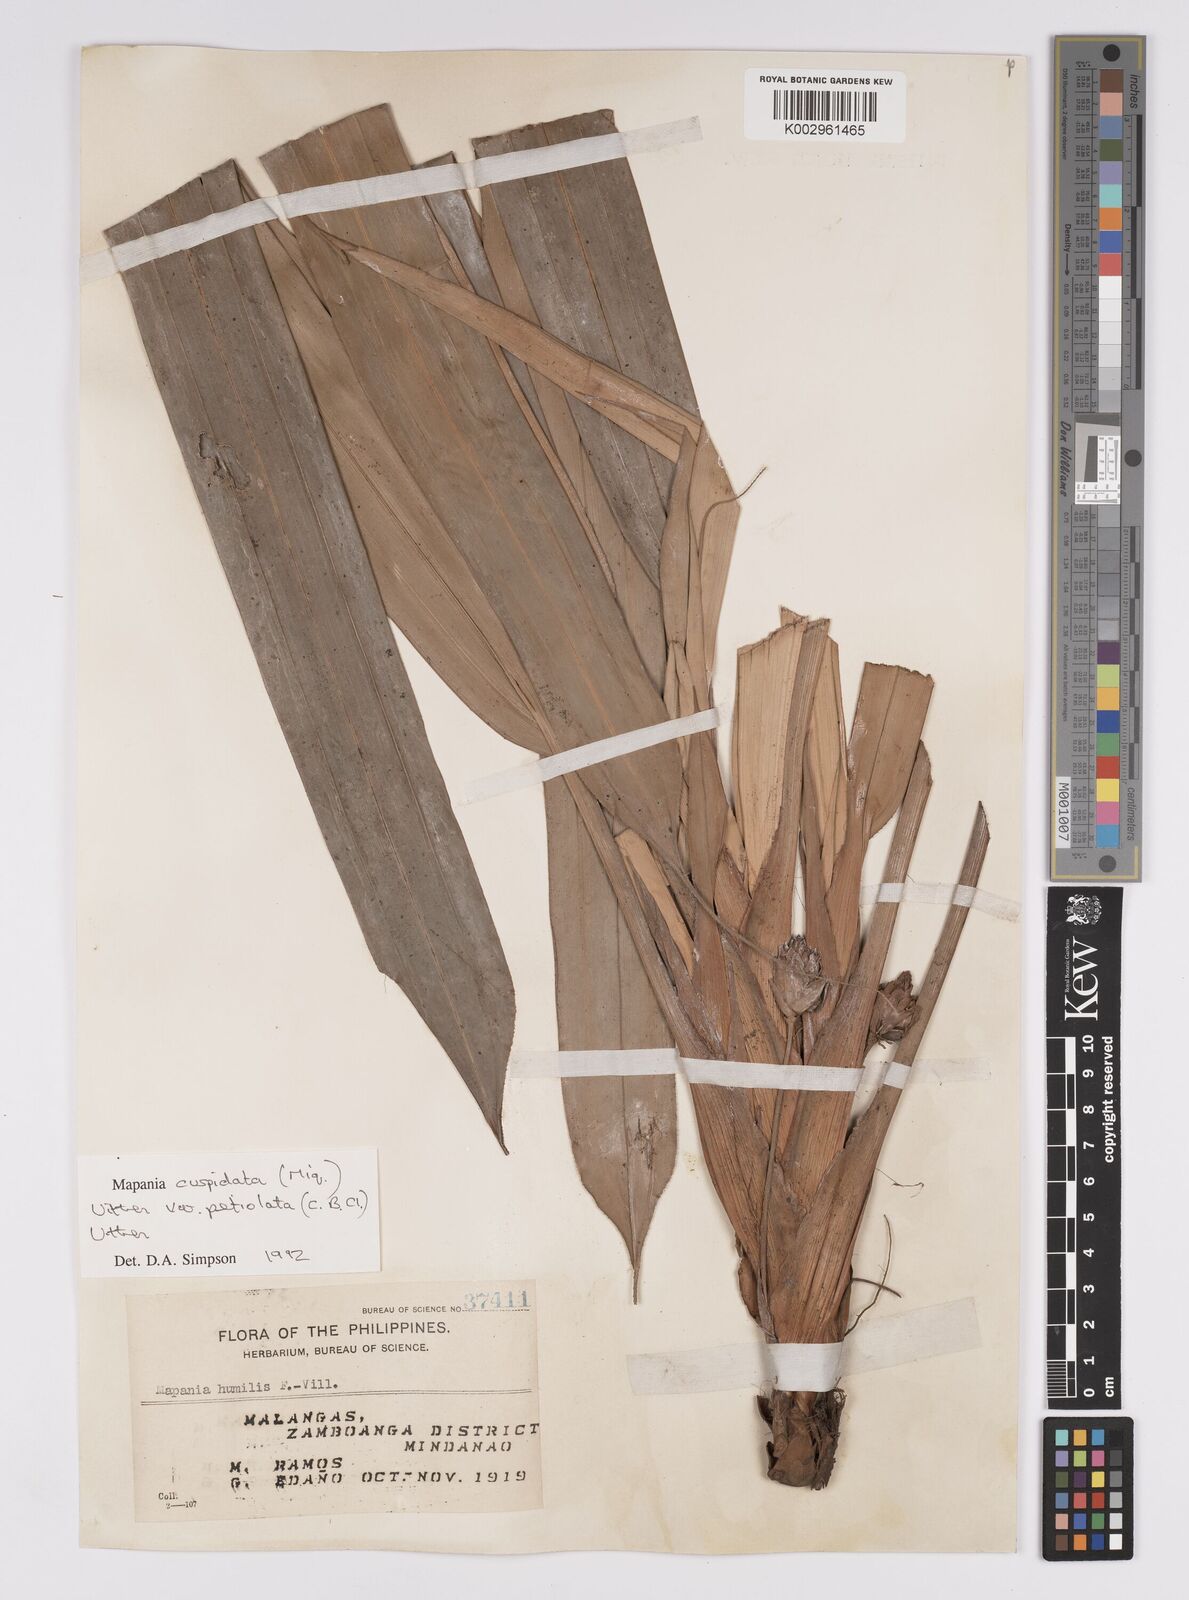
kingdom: Plantae
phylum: Tracheophyta
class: Liliopsida
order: Poales
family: Cyperaceae
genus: Mapania
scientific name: Mapania cuspidata
